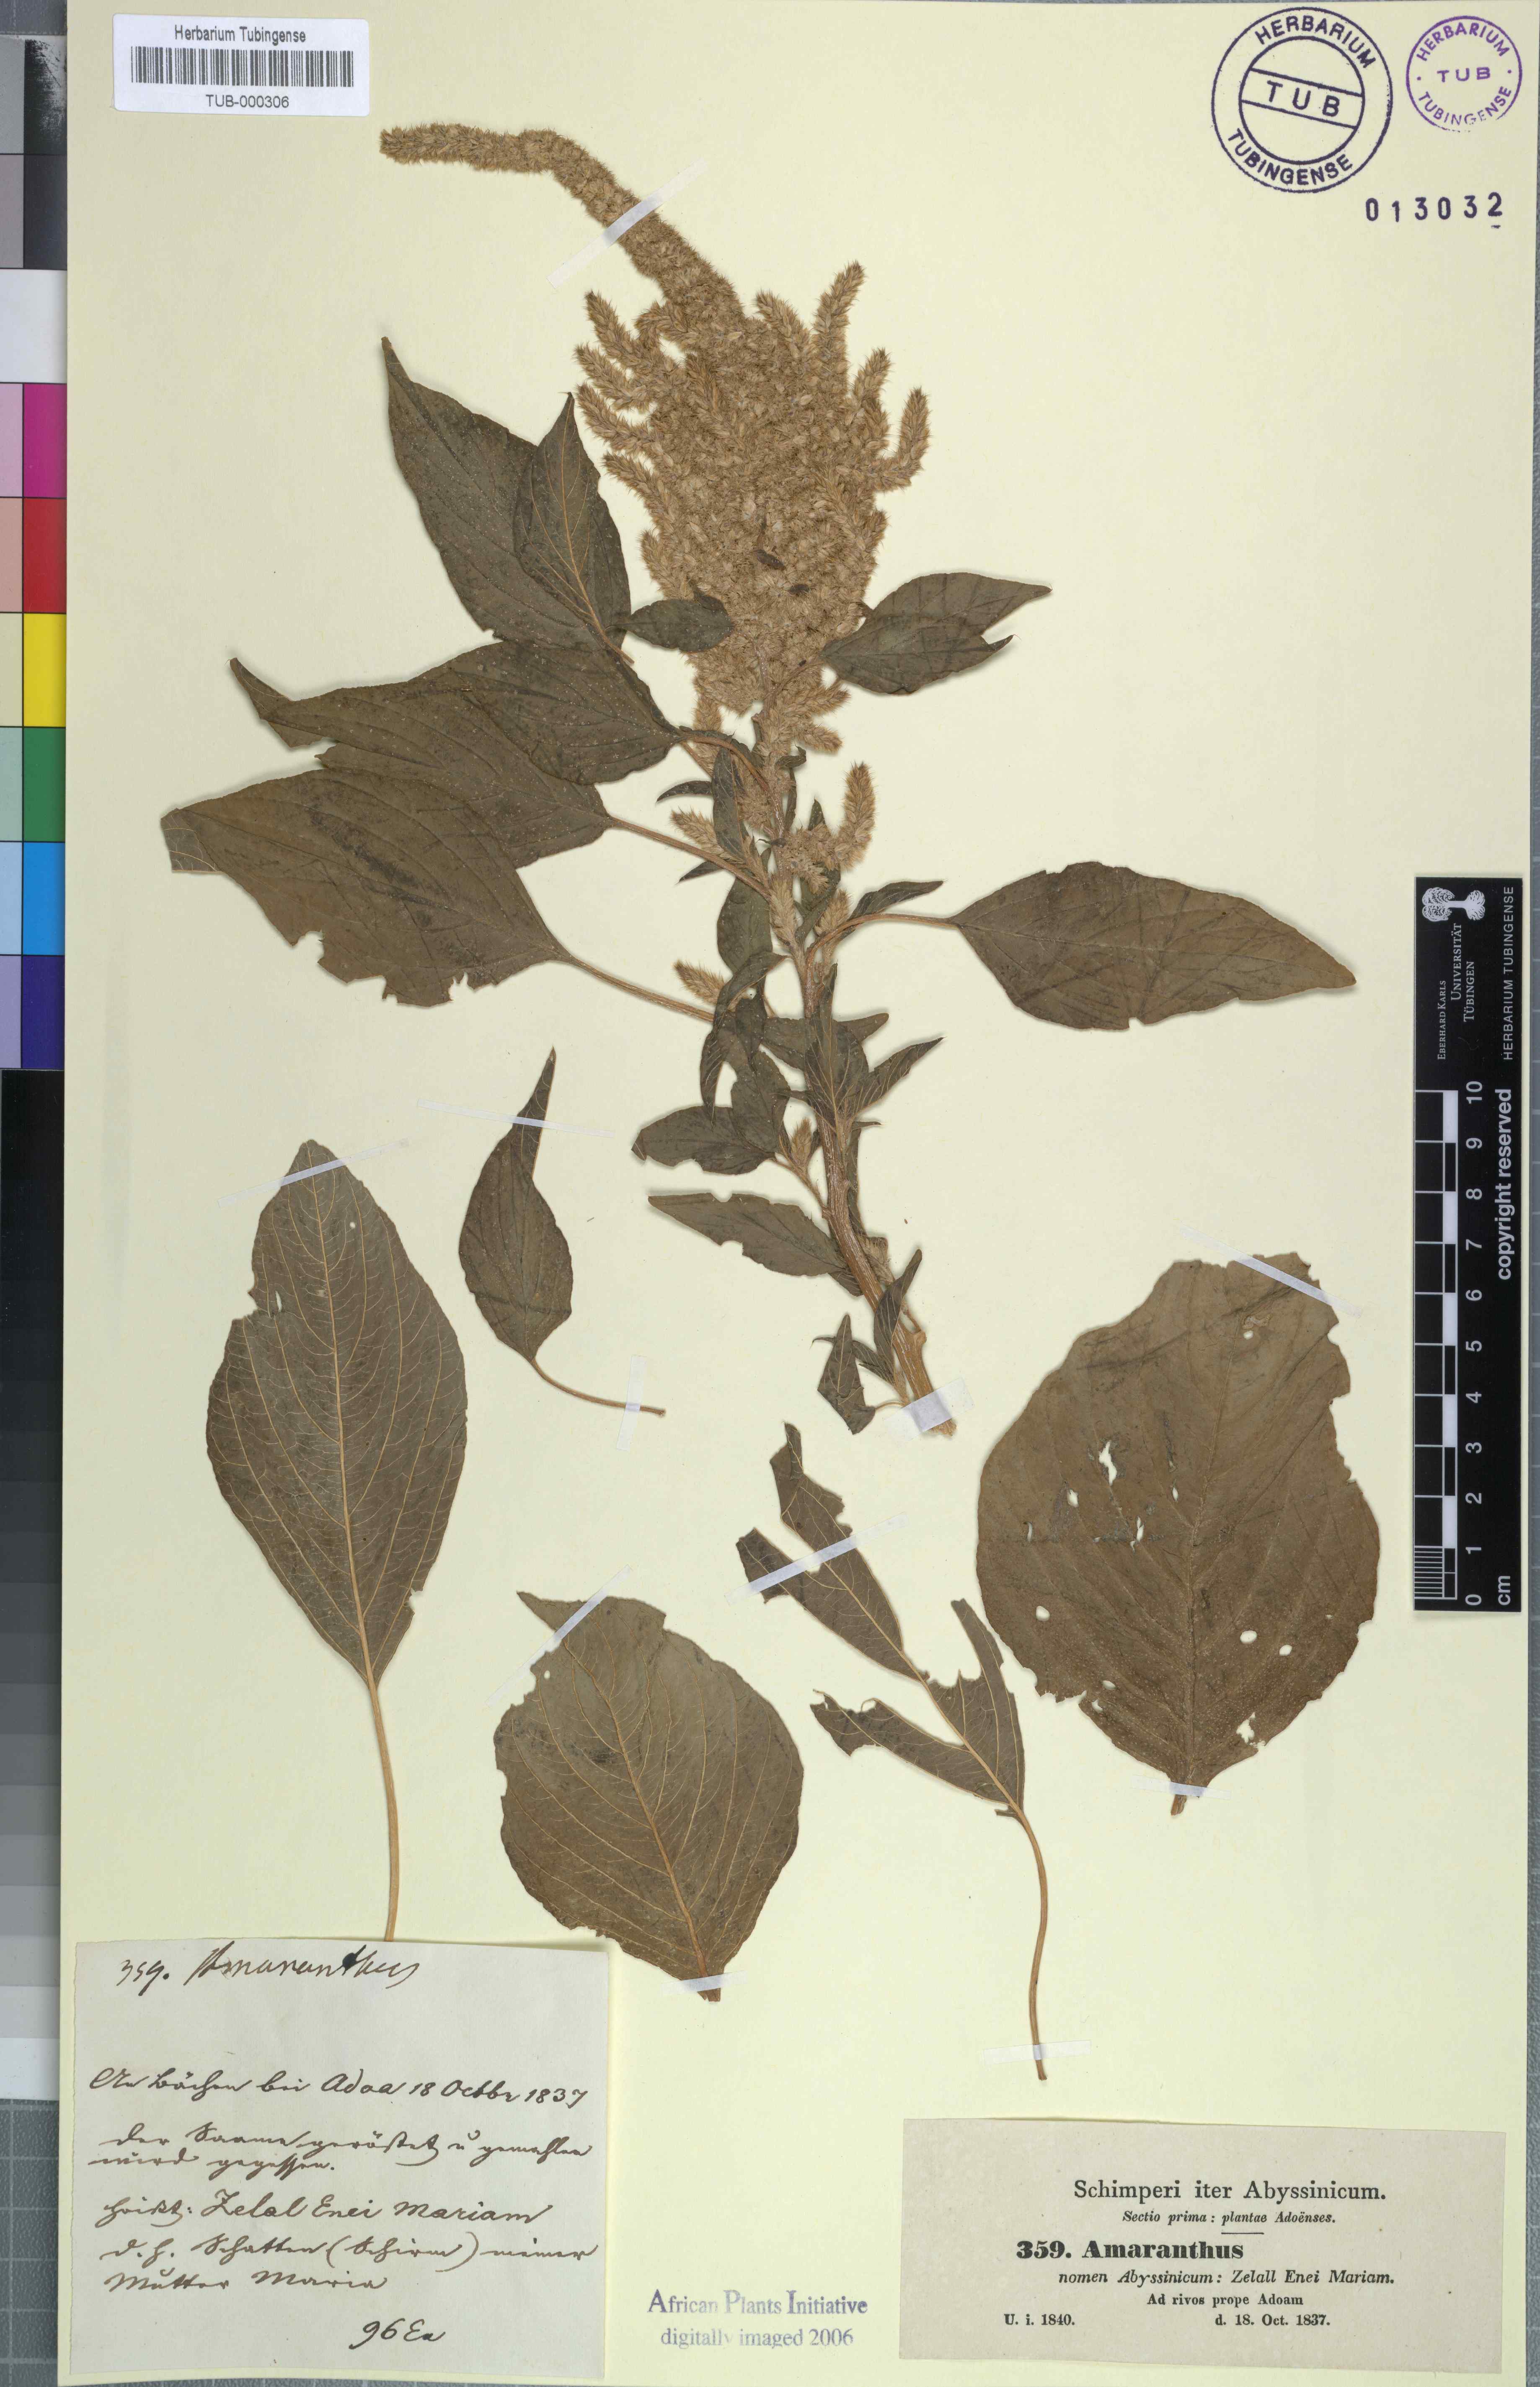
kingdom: Plantae
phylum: Tracheophyta
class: Magnoliopsida
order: Caryophyllales
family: Amaranthaceae
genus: Amaranthus
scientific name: Amaranthus caudatus
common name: Love-lies-bleeding
